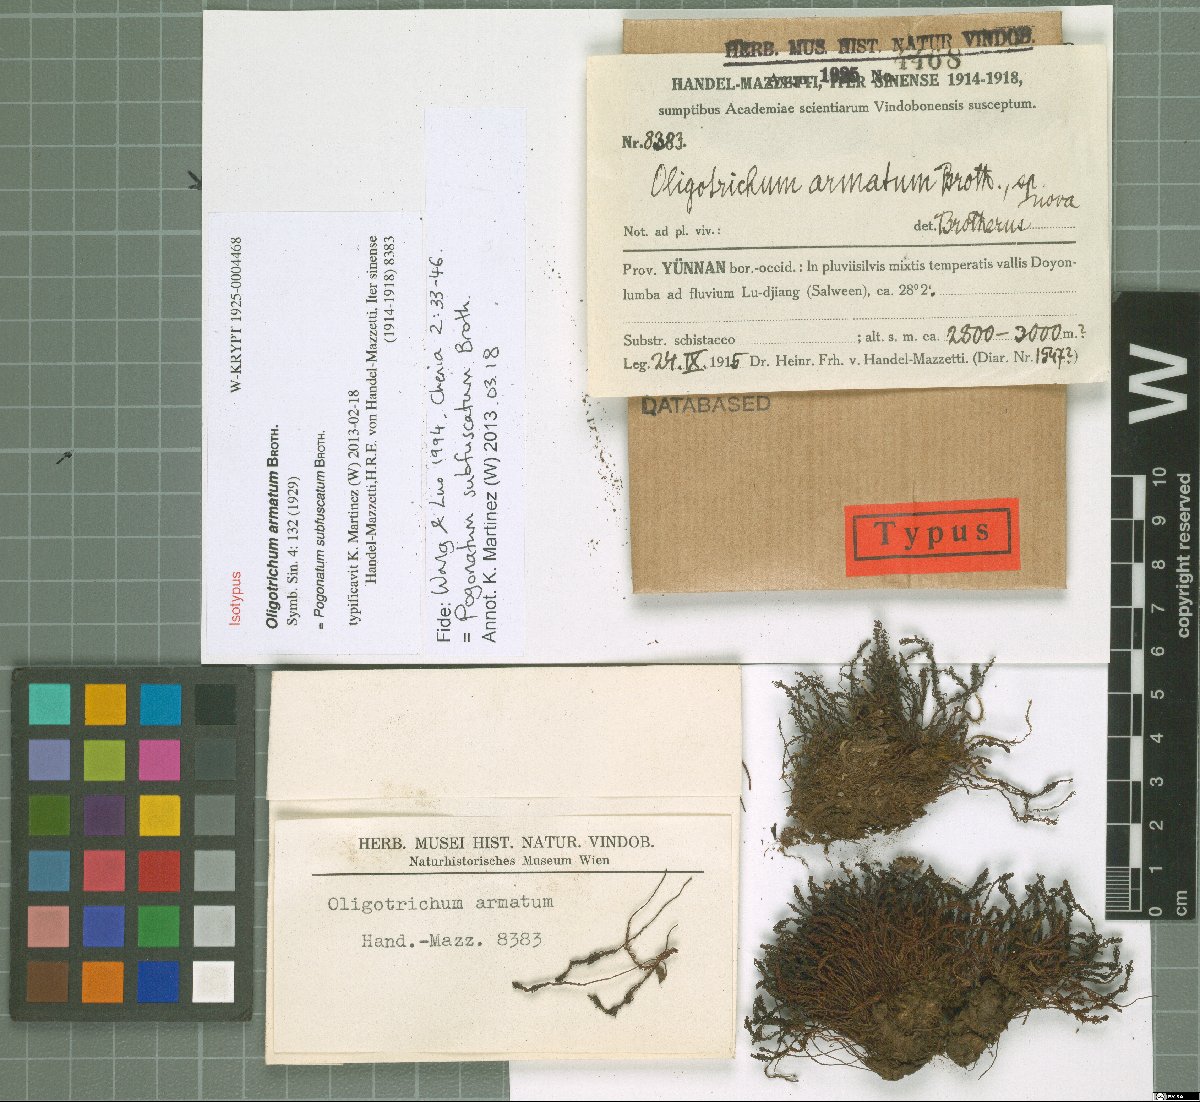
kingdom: Plantae
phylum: Bryophyta
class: Polytrichopsida
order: Polytrichales
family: Polytrichaceae
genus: Pogonatum
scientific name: Pogonatum subfuscatum
